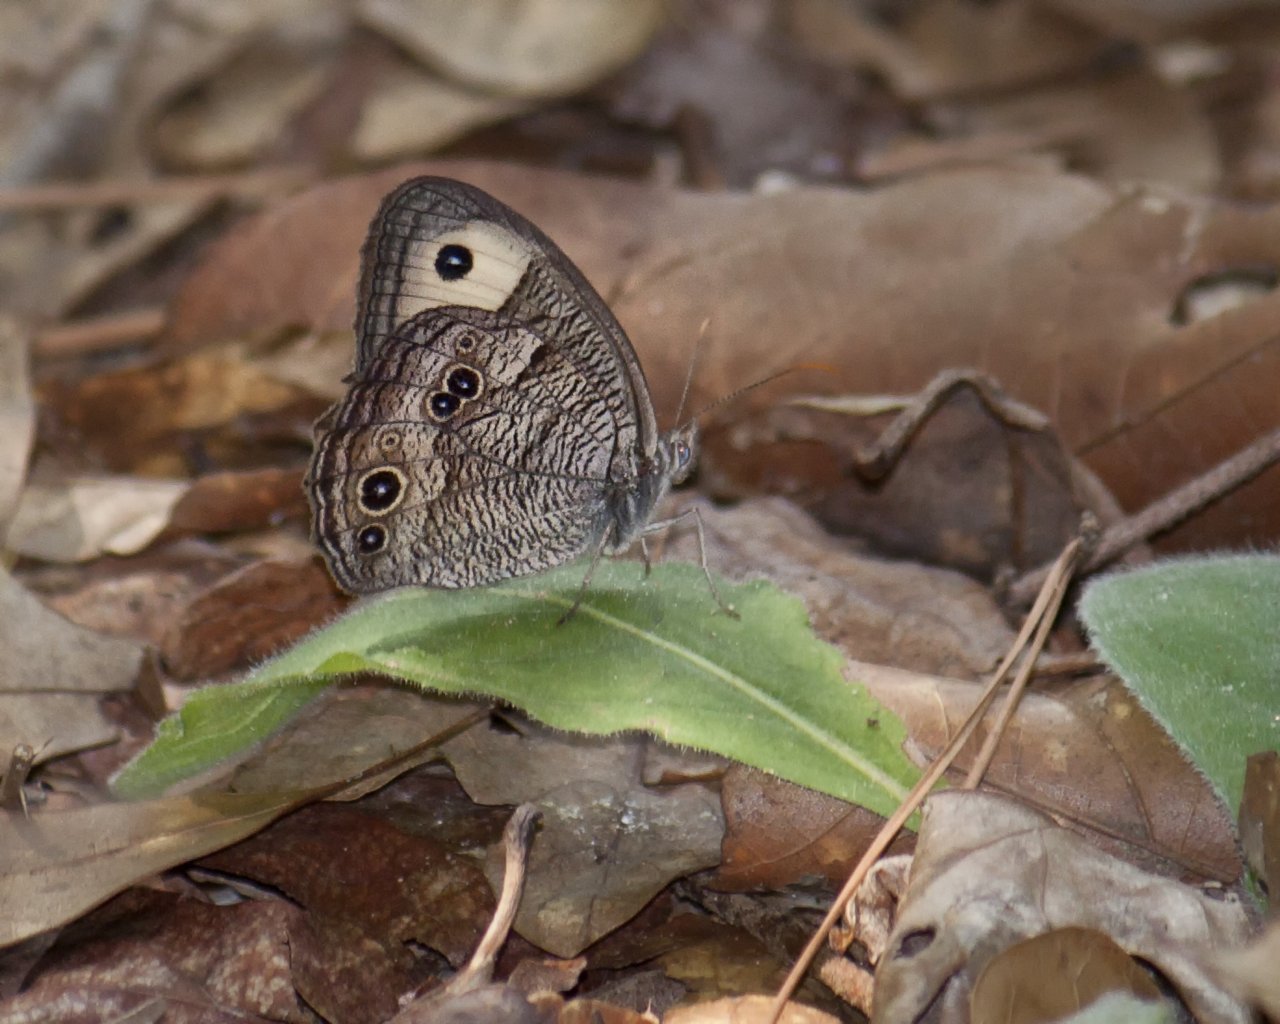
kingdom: Animalia
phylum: Arthropoda
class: Insecta
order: Lepidoptera
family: Nymphalidae
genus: Cercyonis
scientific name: Cercyonis pegala
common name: Common Wood-Nymph
